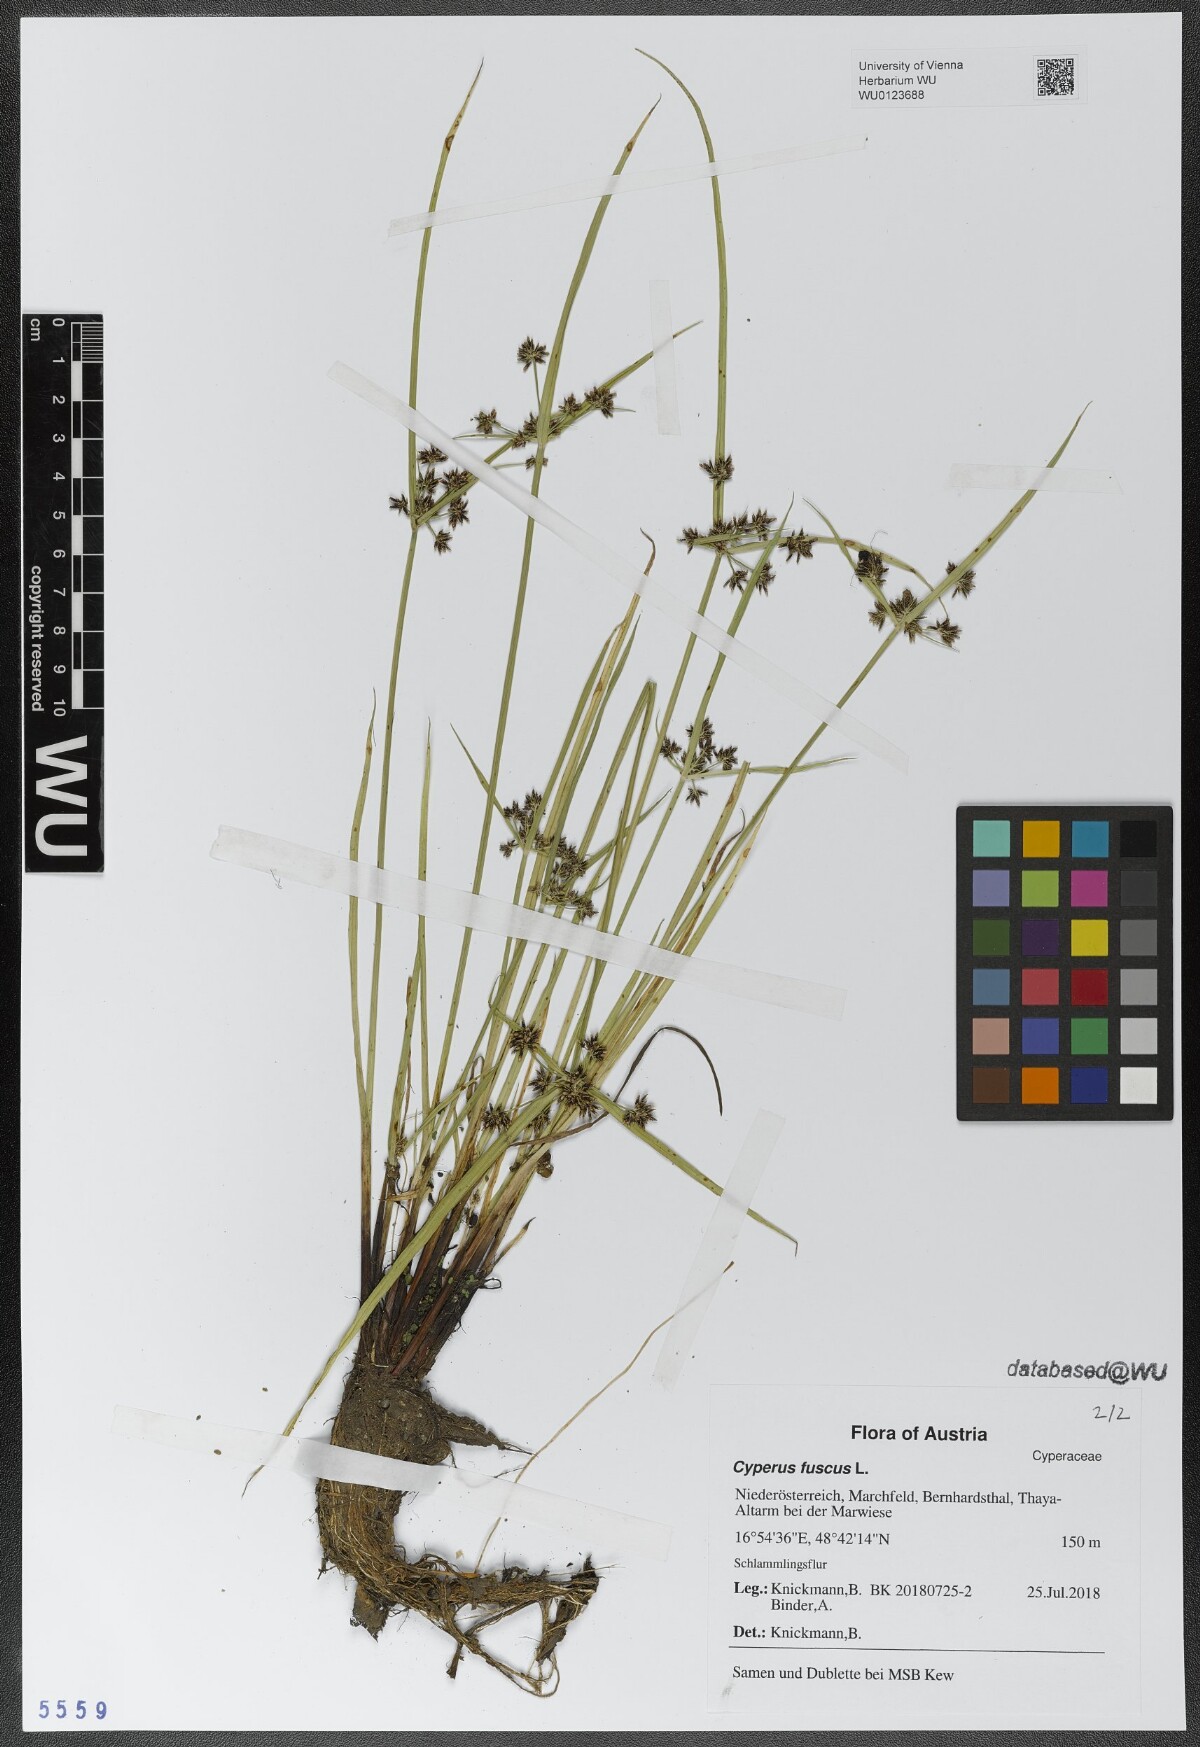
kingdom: Plantae
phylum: Tracheophyta
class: Liliopsida
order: Poales
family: Cyperaceae
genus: Cyperus
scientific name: Cyperus fuscus
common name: Brown galingale
